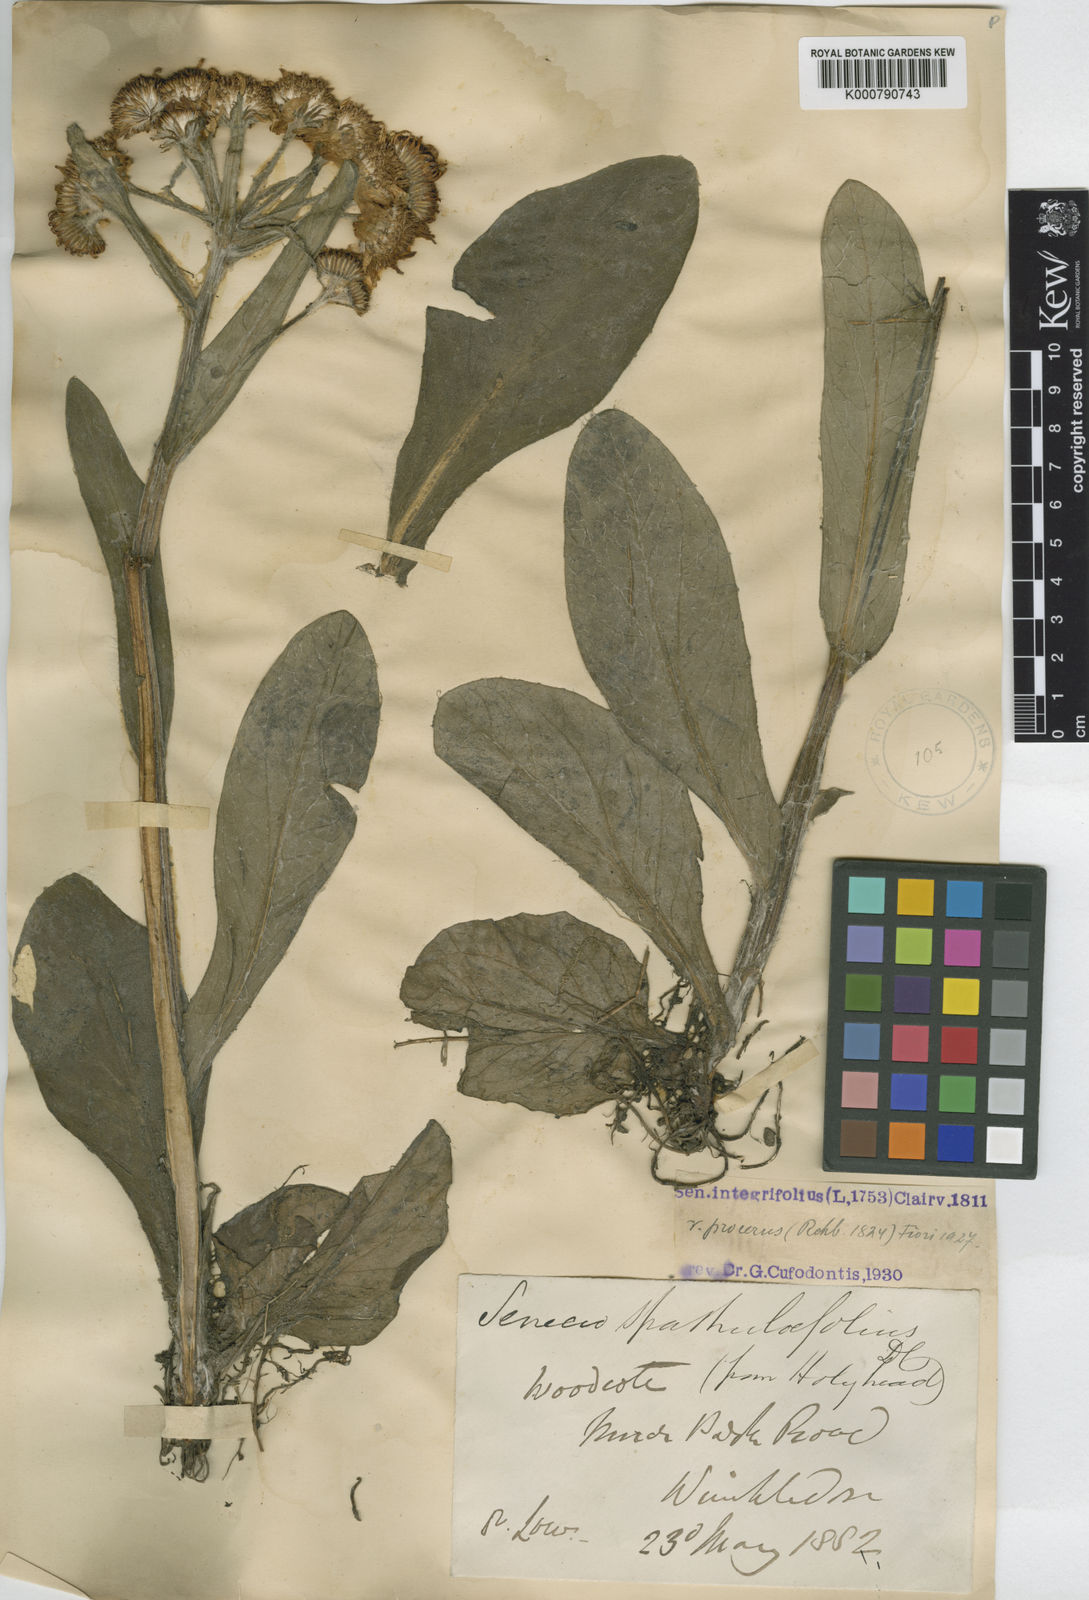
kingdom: Plantae
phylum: Tracheophyta
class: Magnoliopsida
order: Asterales
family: Asteraceae
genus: Tephroseris
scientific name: Tephroseris integrifolia
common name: Field fleawort
